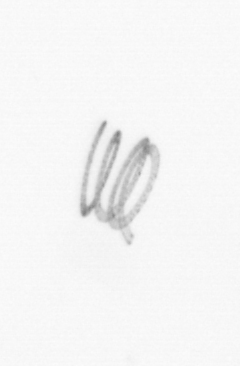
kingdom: Chromista
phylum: Ochrophyta
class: Bacillariophyceae
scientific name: Bacillariophyceae
